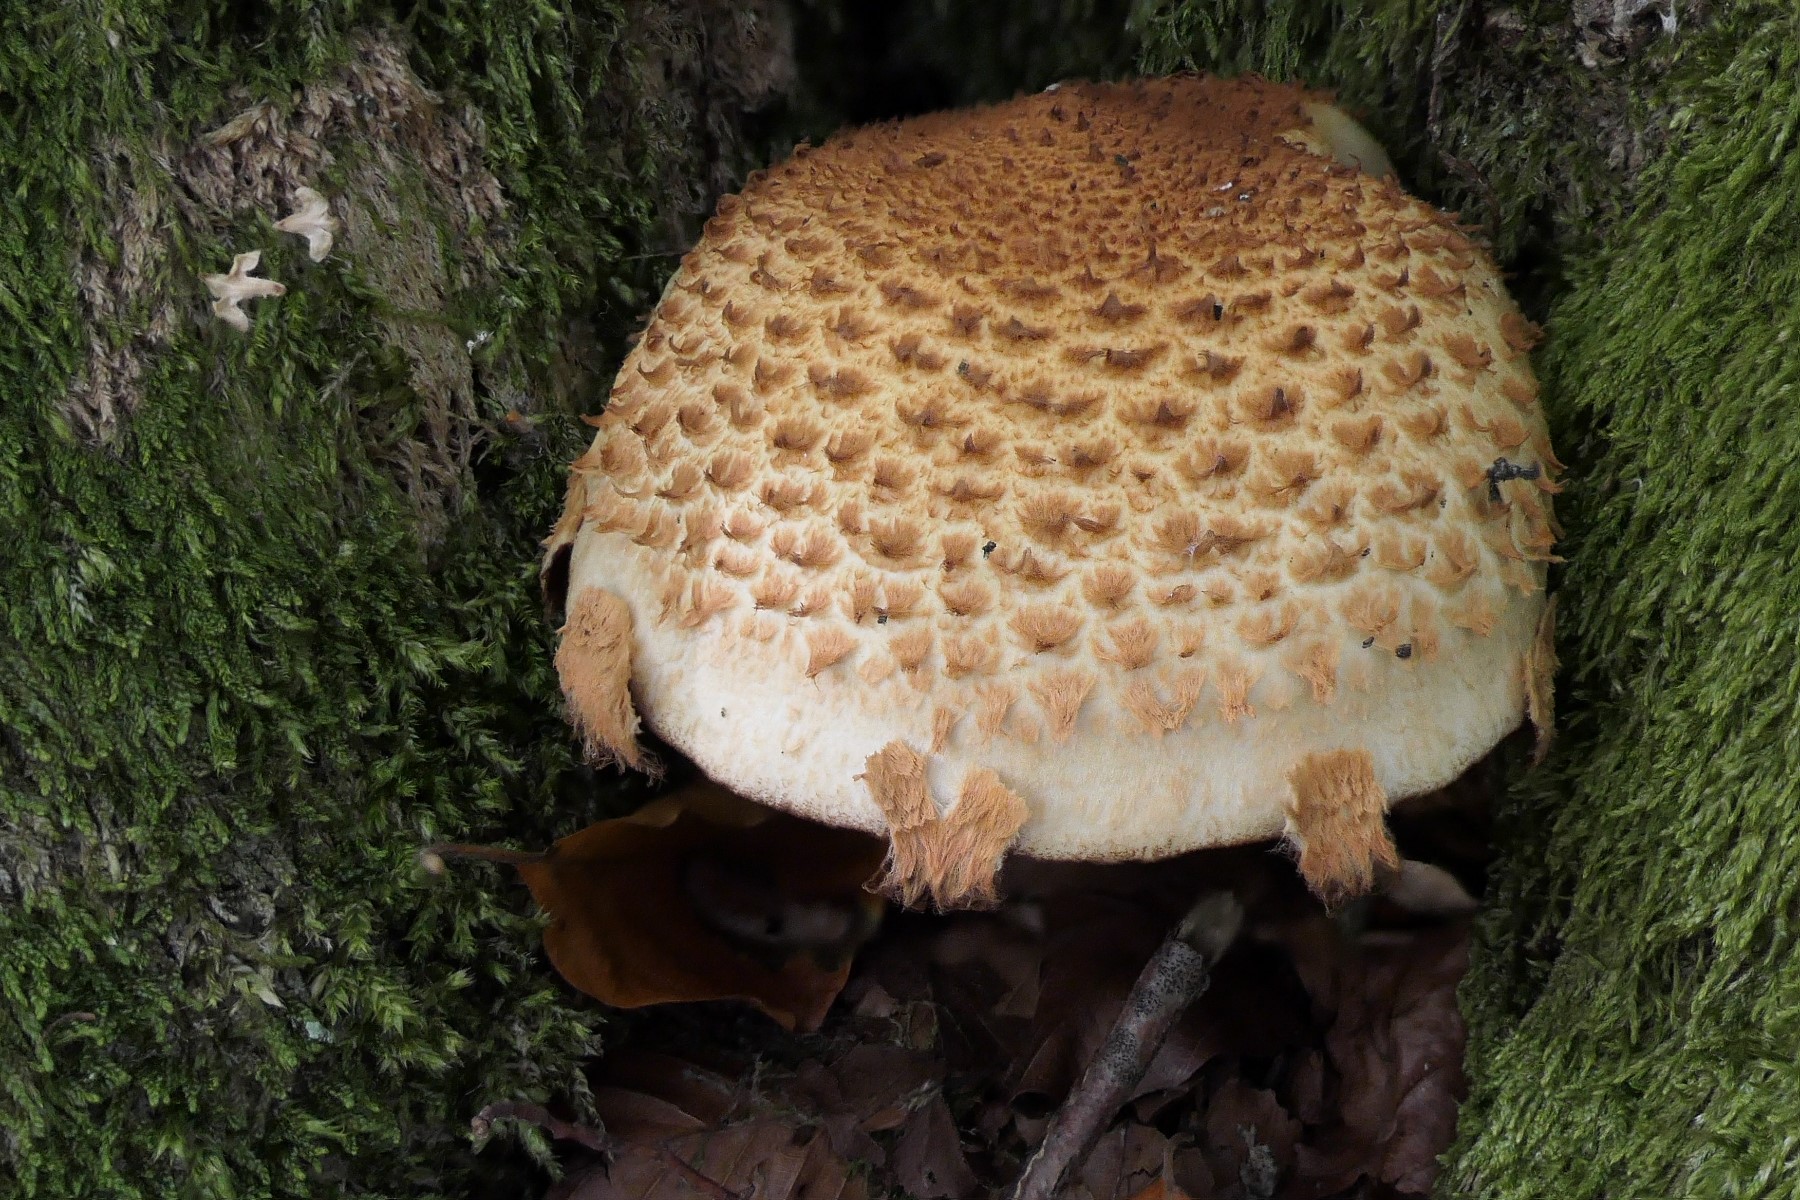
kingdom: Fungi
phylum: Basidiomycota
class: Agaricomycetes
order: Agaricales
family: Strophariaceae
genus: Pholiota
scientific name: Pholiota squarrosa
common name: krumskællet skælhat
